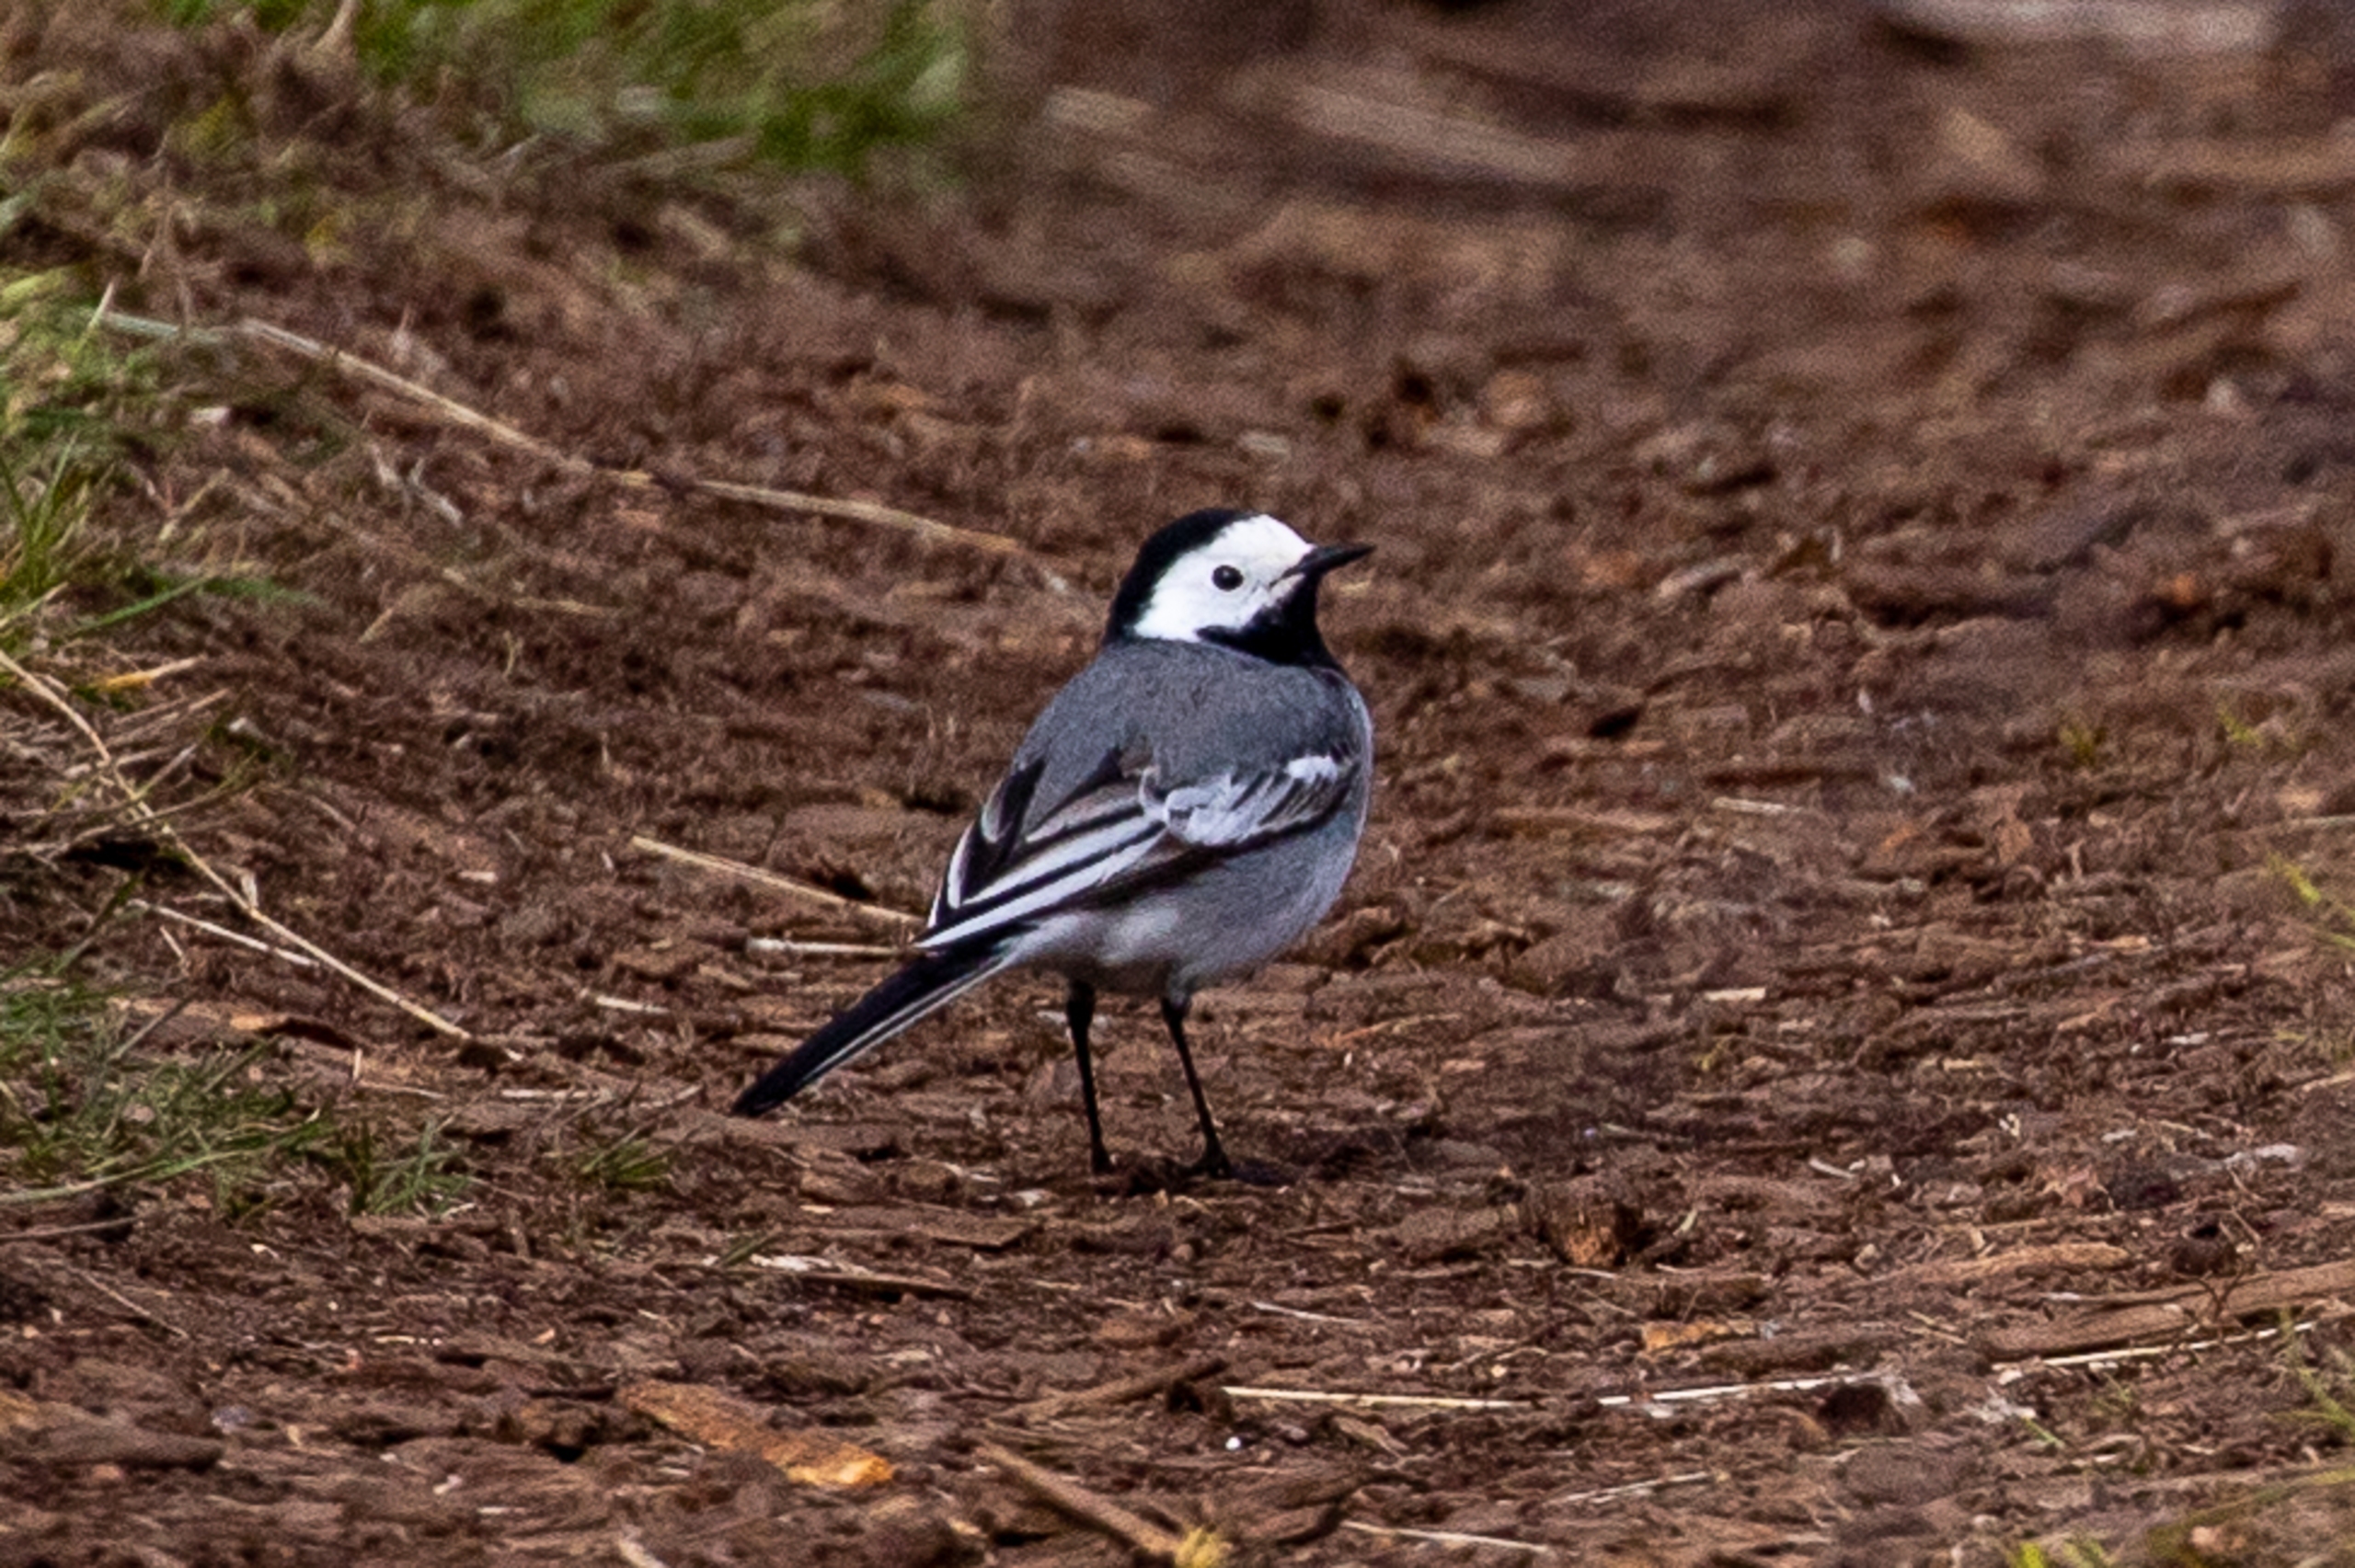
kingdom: Animalia
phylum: Chordata
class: Aves
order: Passeriformes
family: Motacillidae
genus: Motacilla
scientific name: Motacilla alba
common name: Hvid vipstjert
